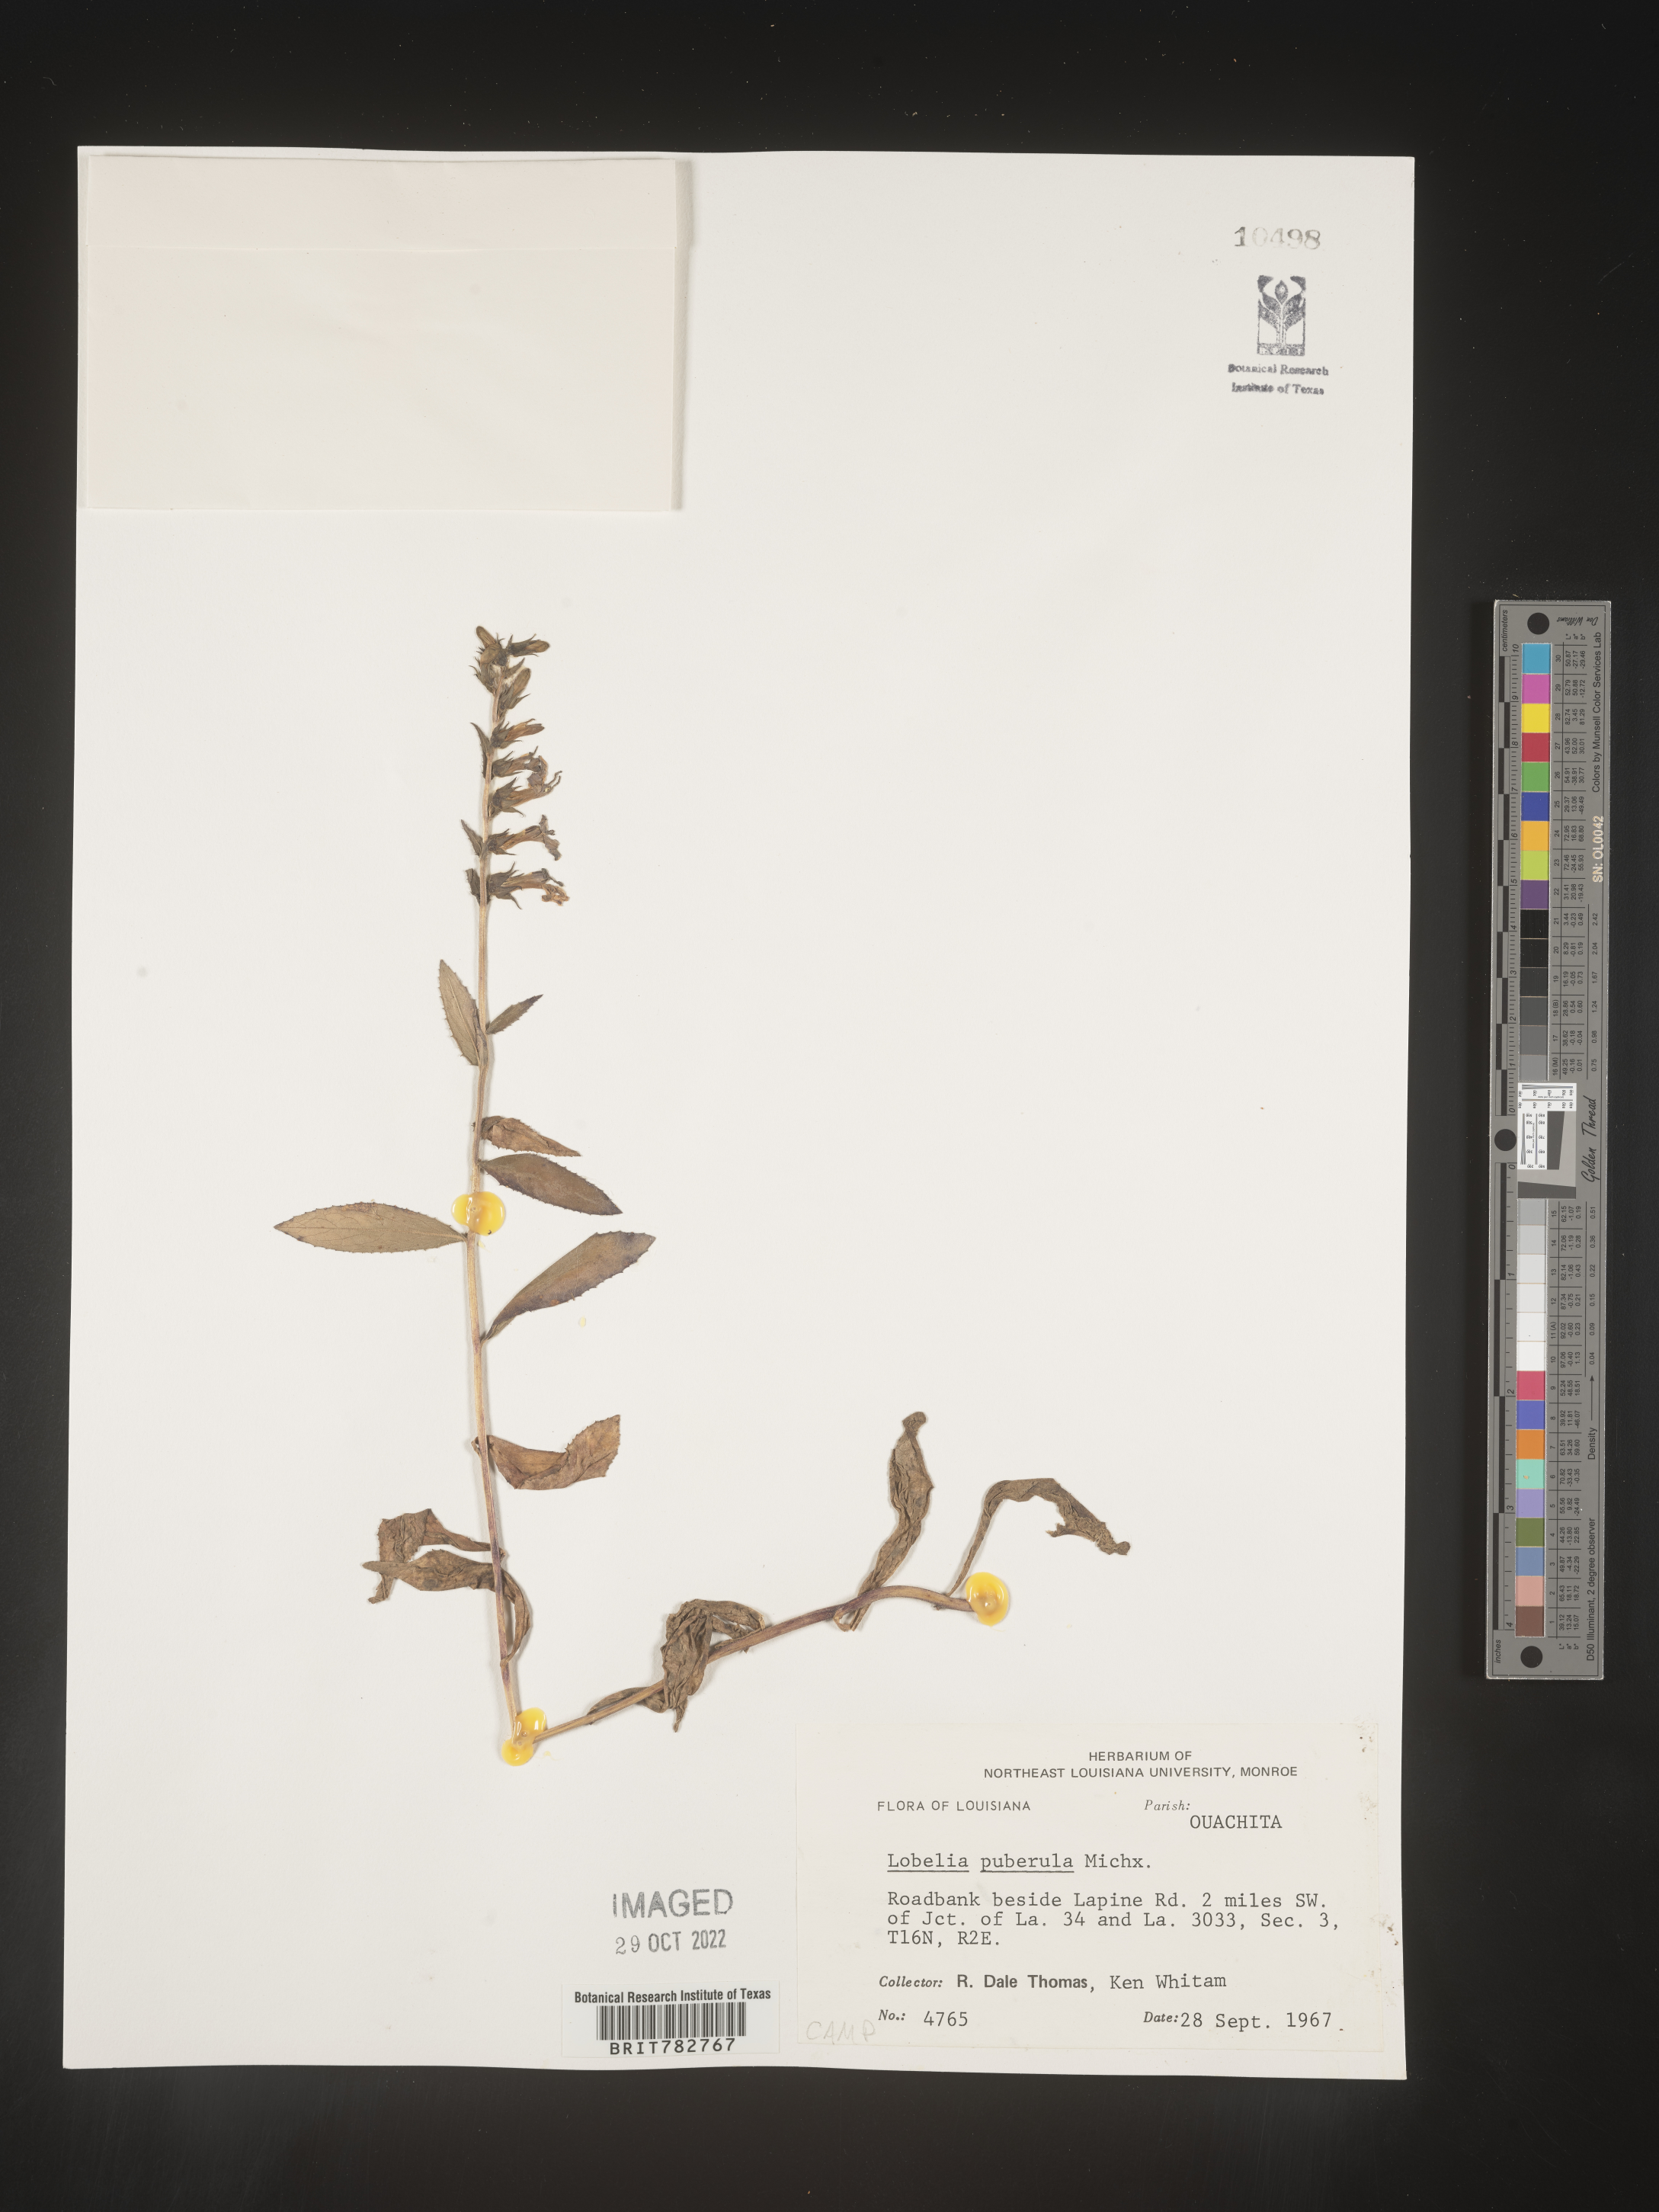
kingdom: Plantae
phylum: Tracheophyta
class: Magnoliopsida
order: Asterales
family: Campanulaceae
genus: Lobelia
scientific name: Lobelia puberula
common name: Purple dewdrop
